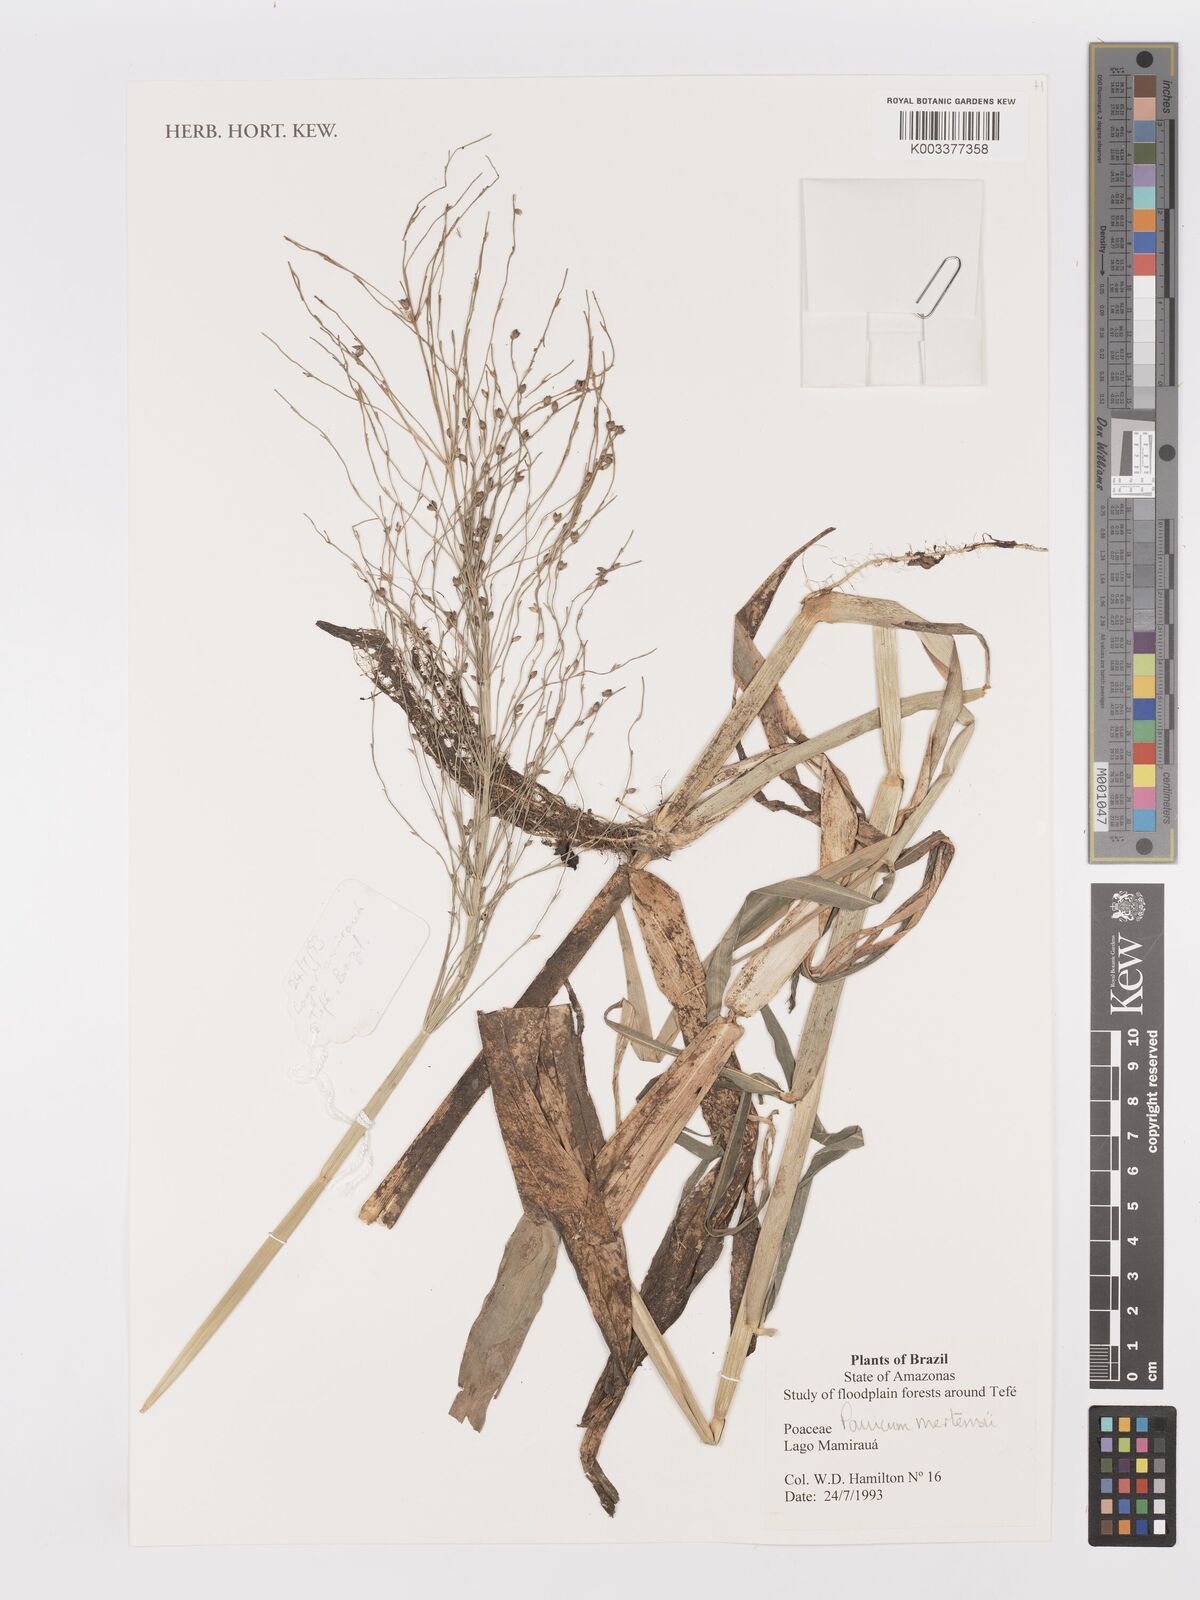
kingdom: Plantae
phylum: Tracheophyta
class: Liliopsida
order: Poales
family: Poaceae
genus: Stephostachys
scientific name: Stephostachys mertensii
